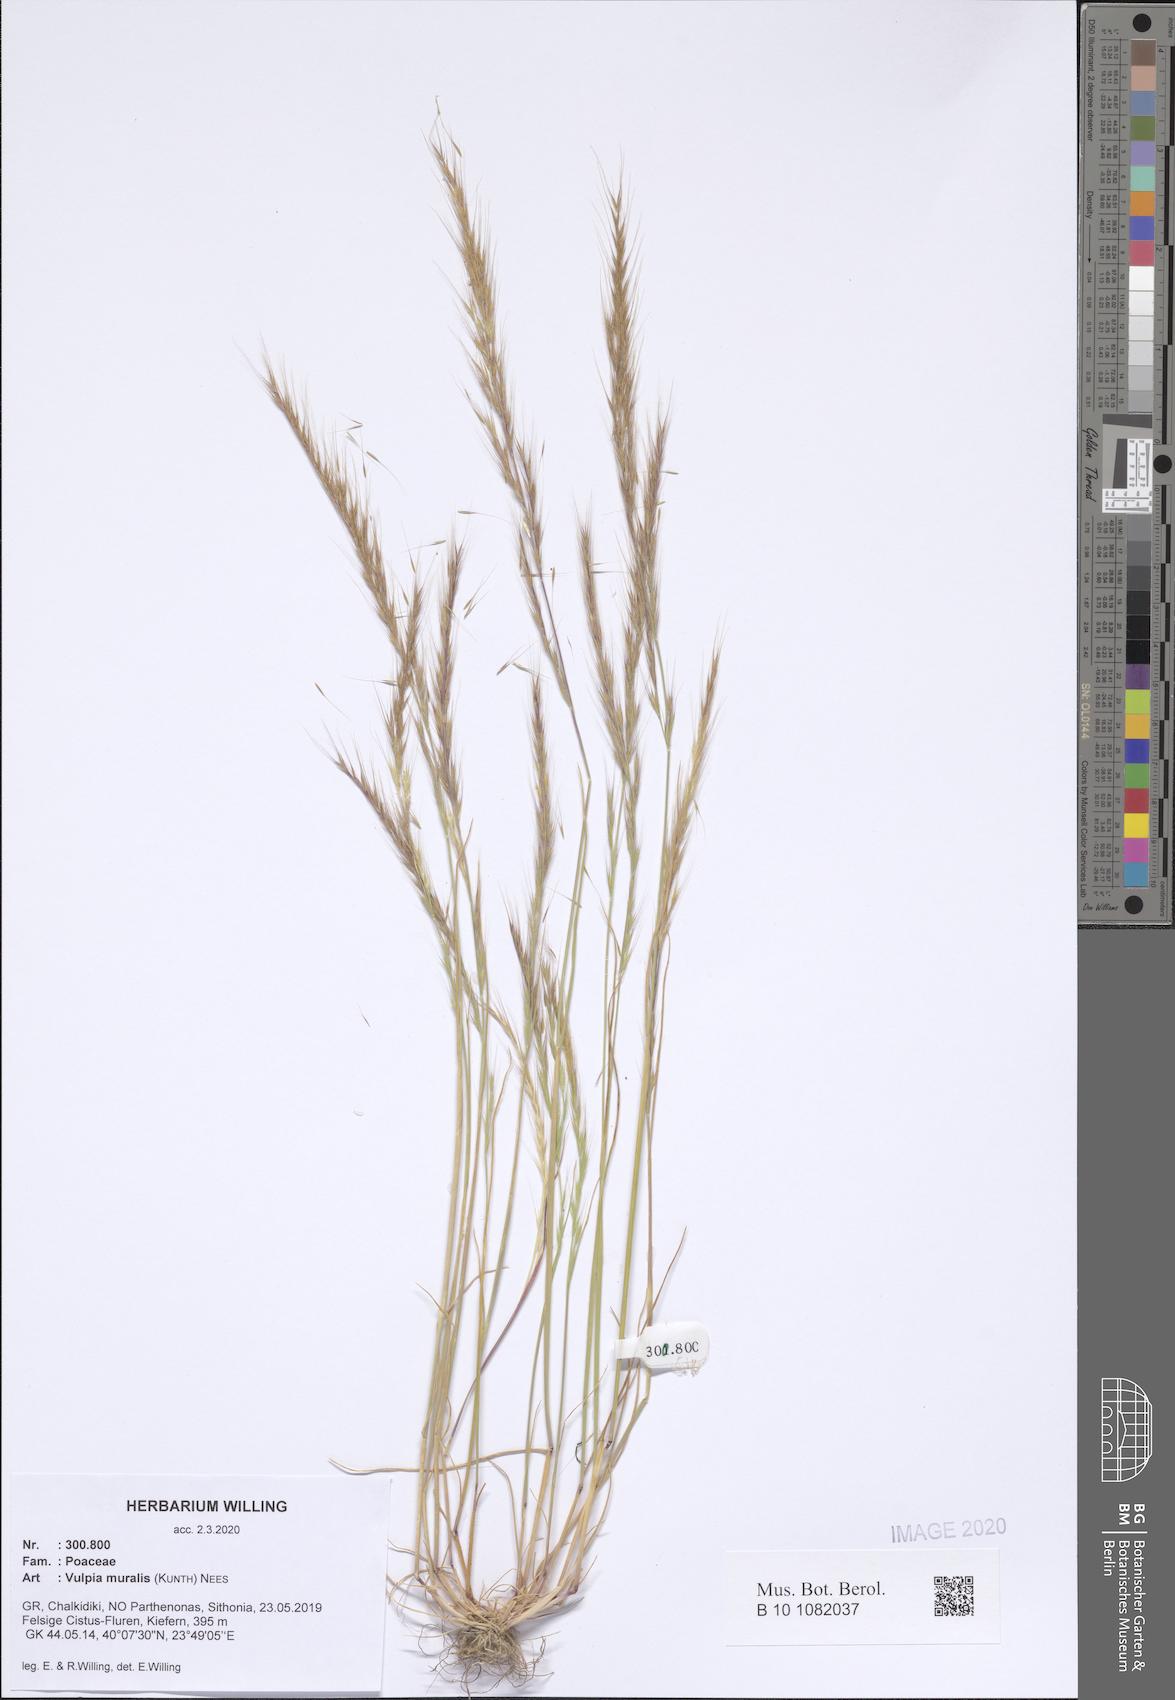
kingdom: Plantae
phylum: Tracheophyta
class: Liliopsida
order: Poales
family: Poaceae
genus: Festuca
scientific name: Festuca muralis
